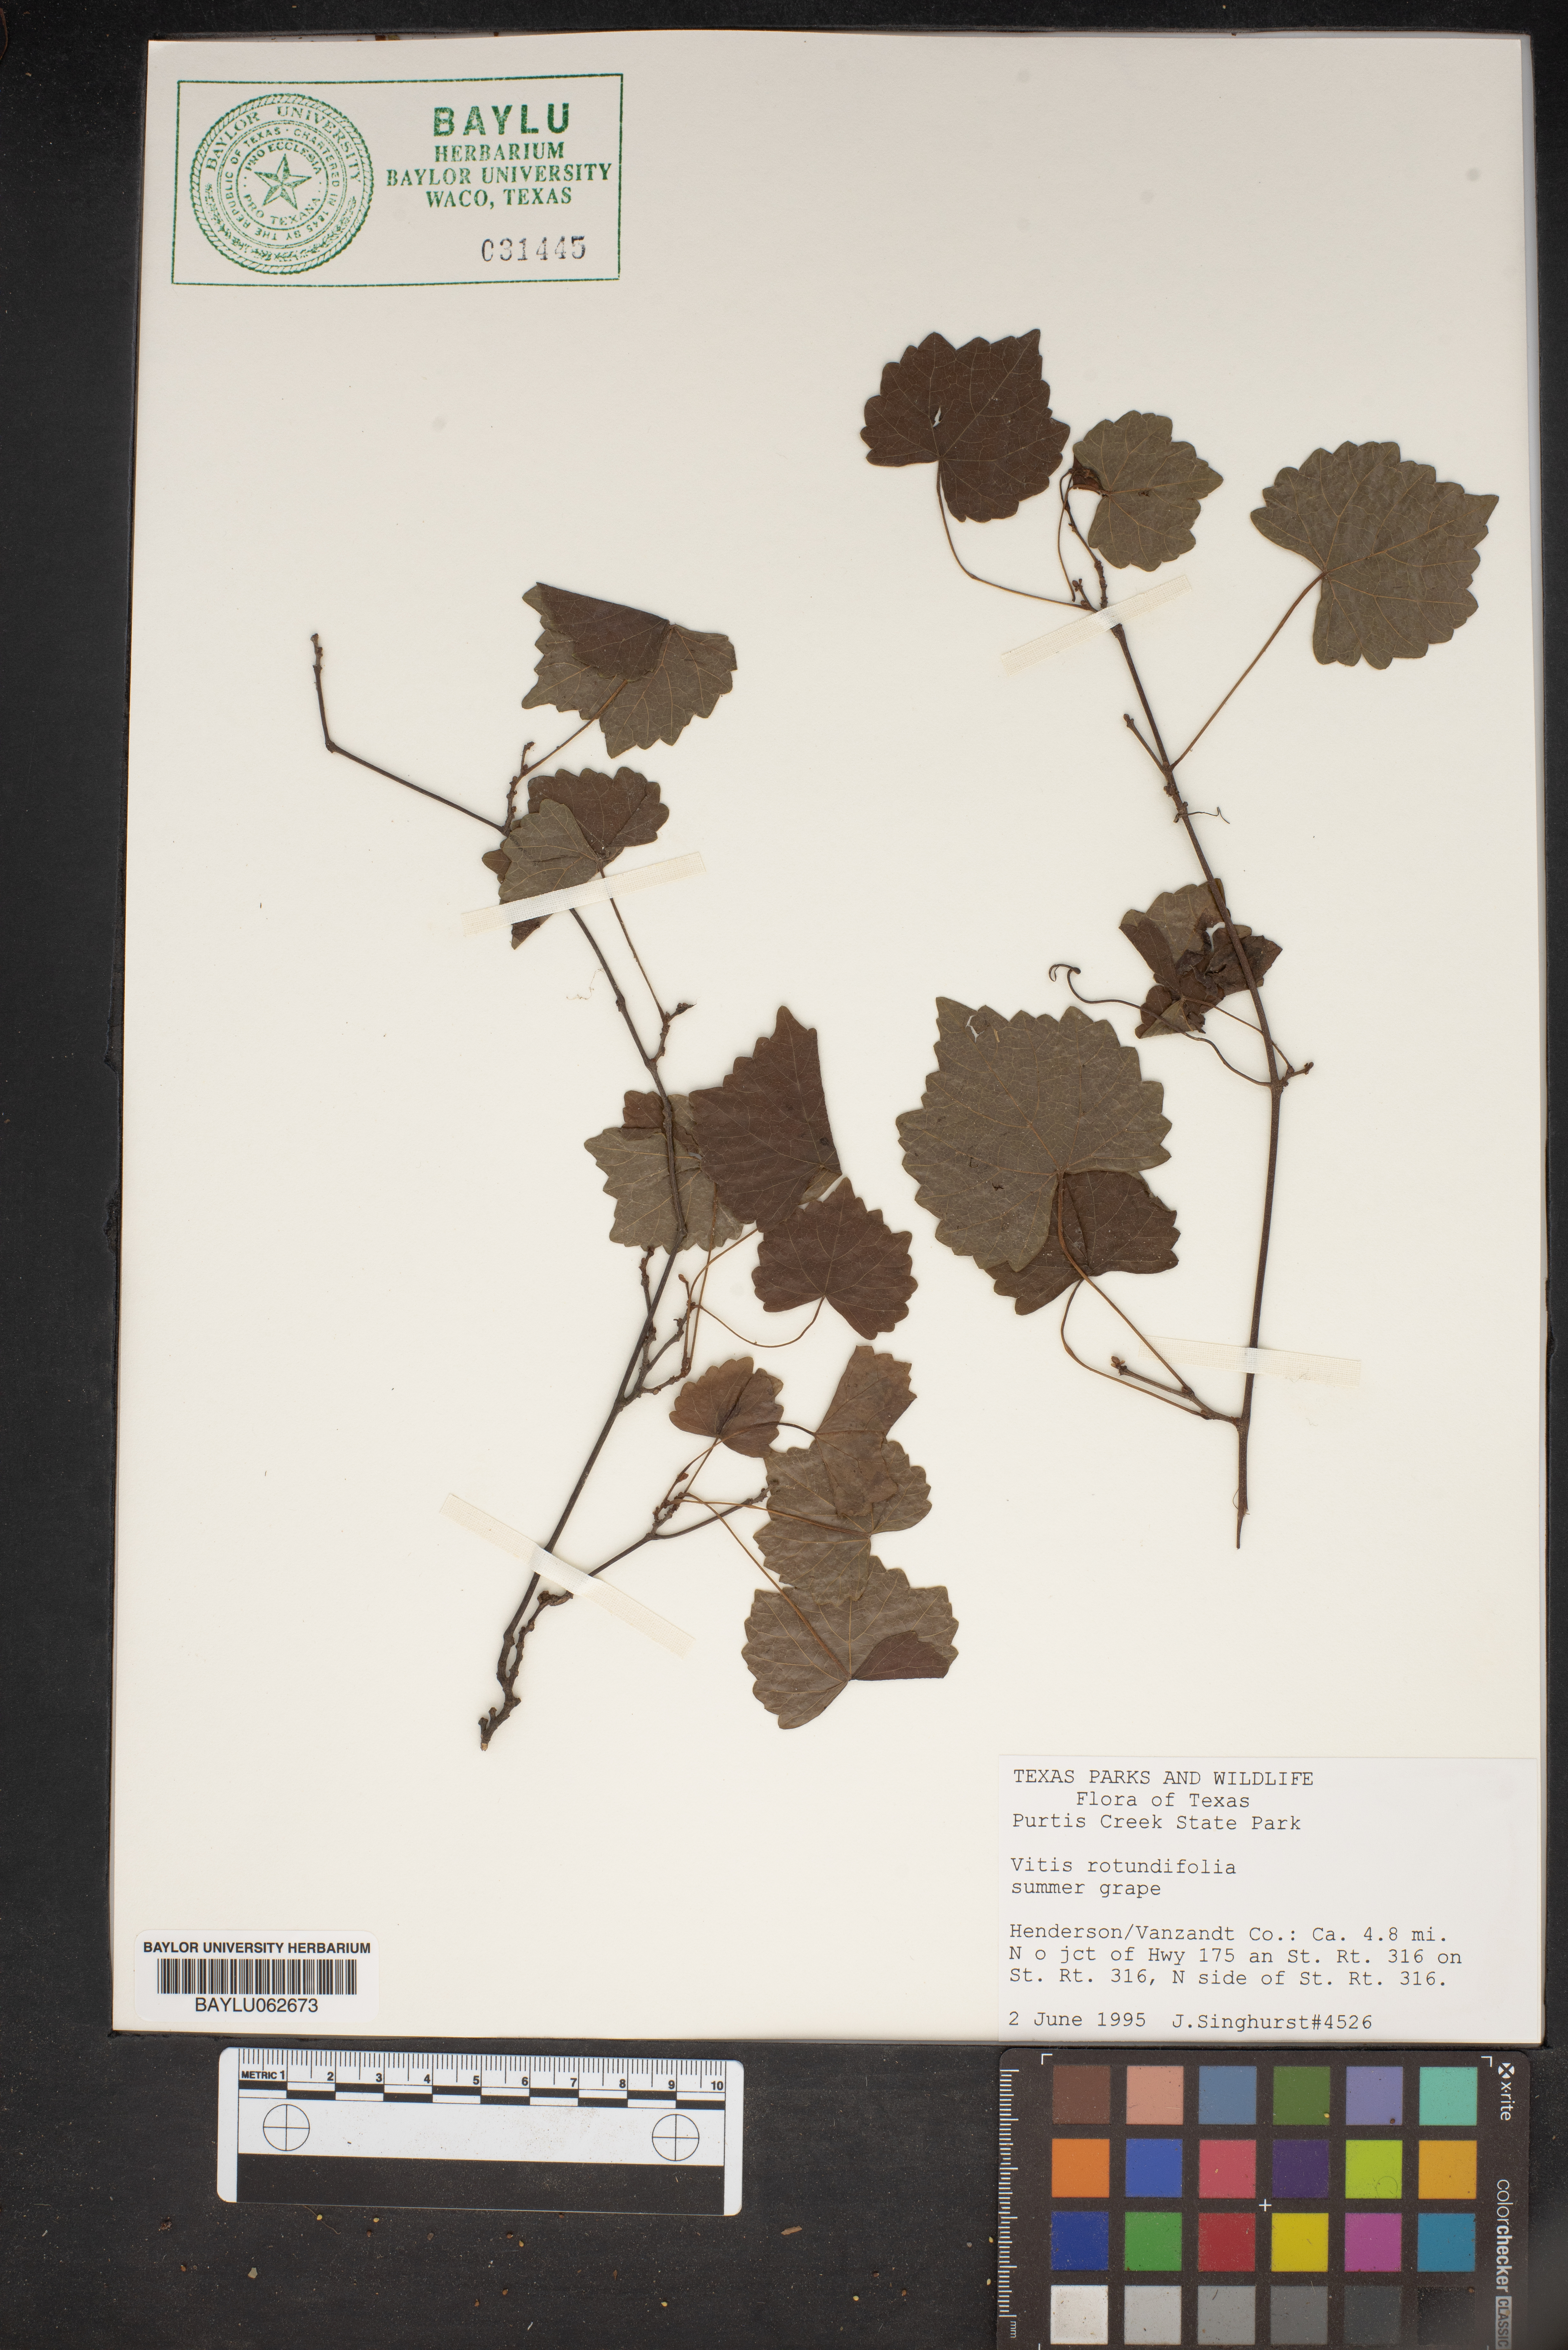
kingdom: Plantae
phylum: Tracheophyta
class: Magnoliopsida
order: Vitales
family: Vitaceae
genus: Vitis
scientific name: Vitis rotundifolia
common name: Muscadine grape
